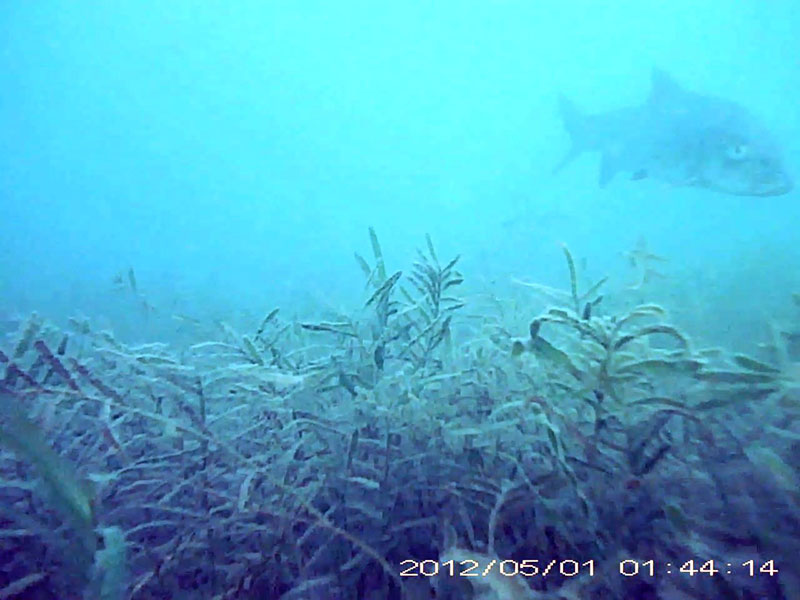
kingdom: Animalia
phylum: Chordata
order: Cypriniformes
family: Cyprinidae
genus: Hemibarbus
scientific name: Hemibarbus labeo
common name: ニゴイ
